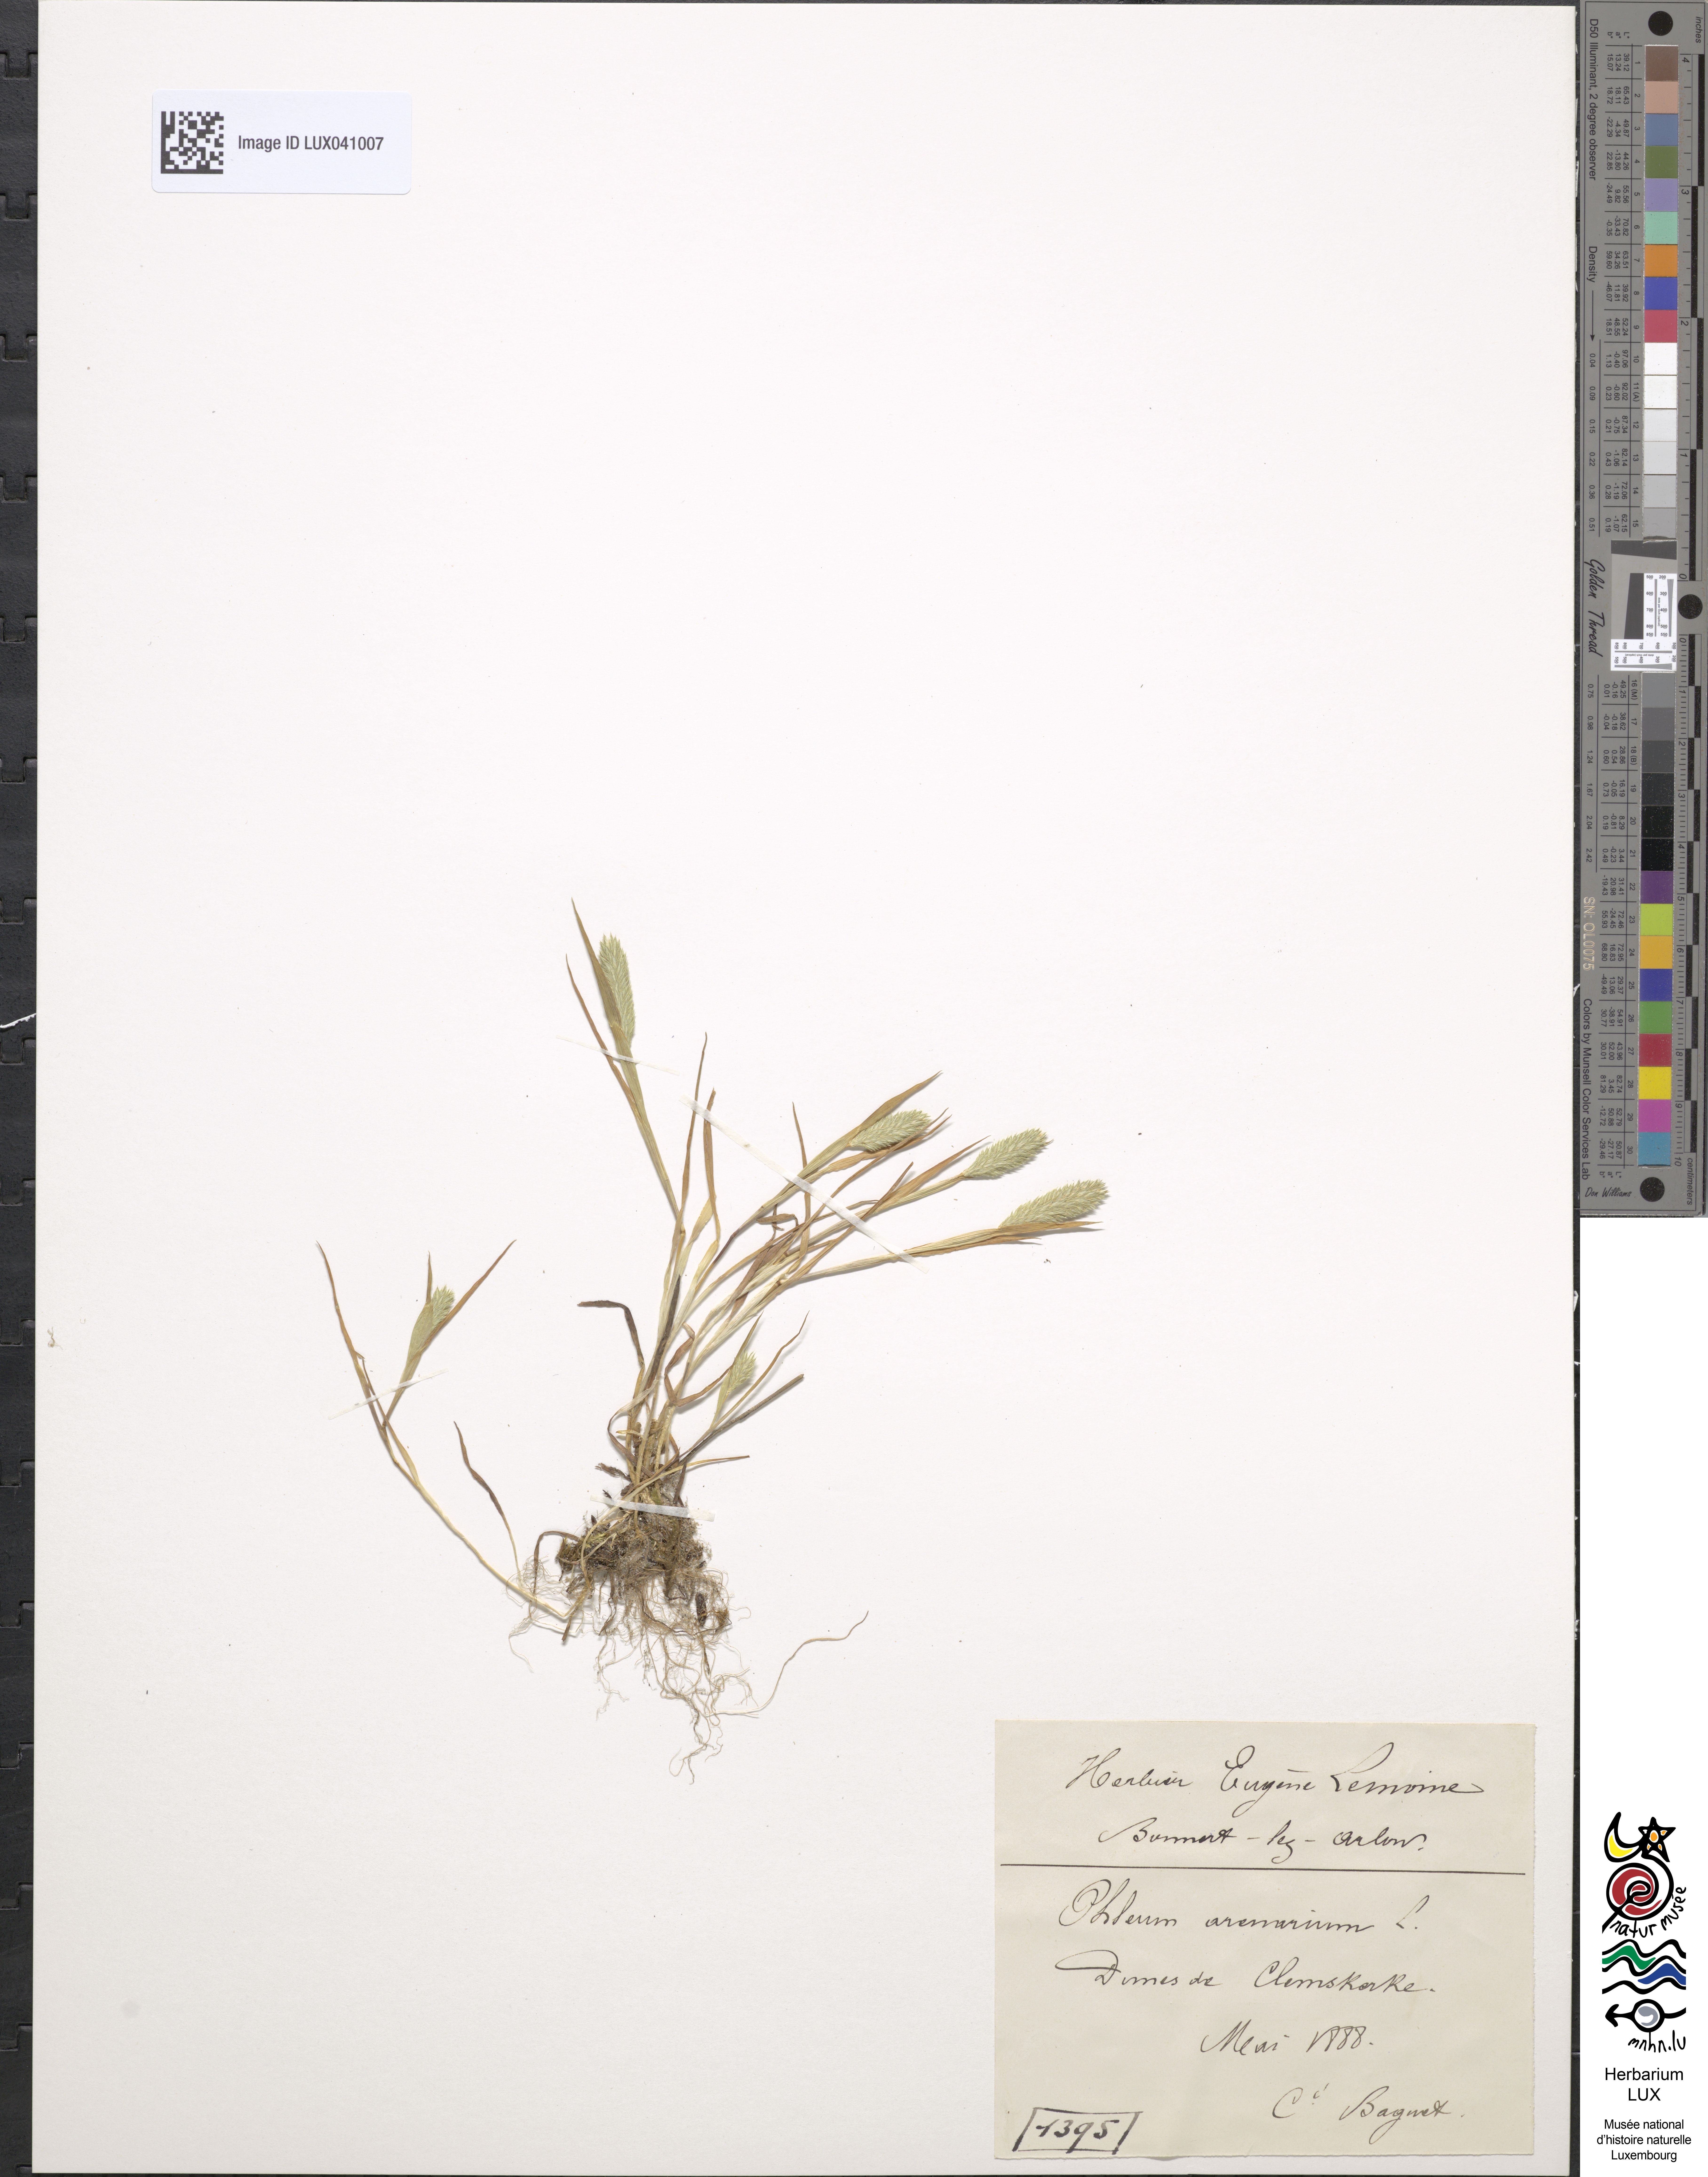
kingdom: Plantae
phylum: Tracheophyta
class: Liliopsida
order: Poales
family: Poaceae
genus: Phleum
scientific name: Phleum arenarium
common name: Sand cat's-tail
